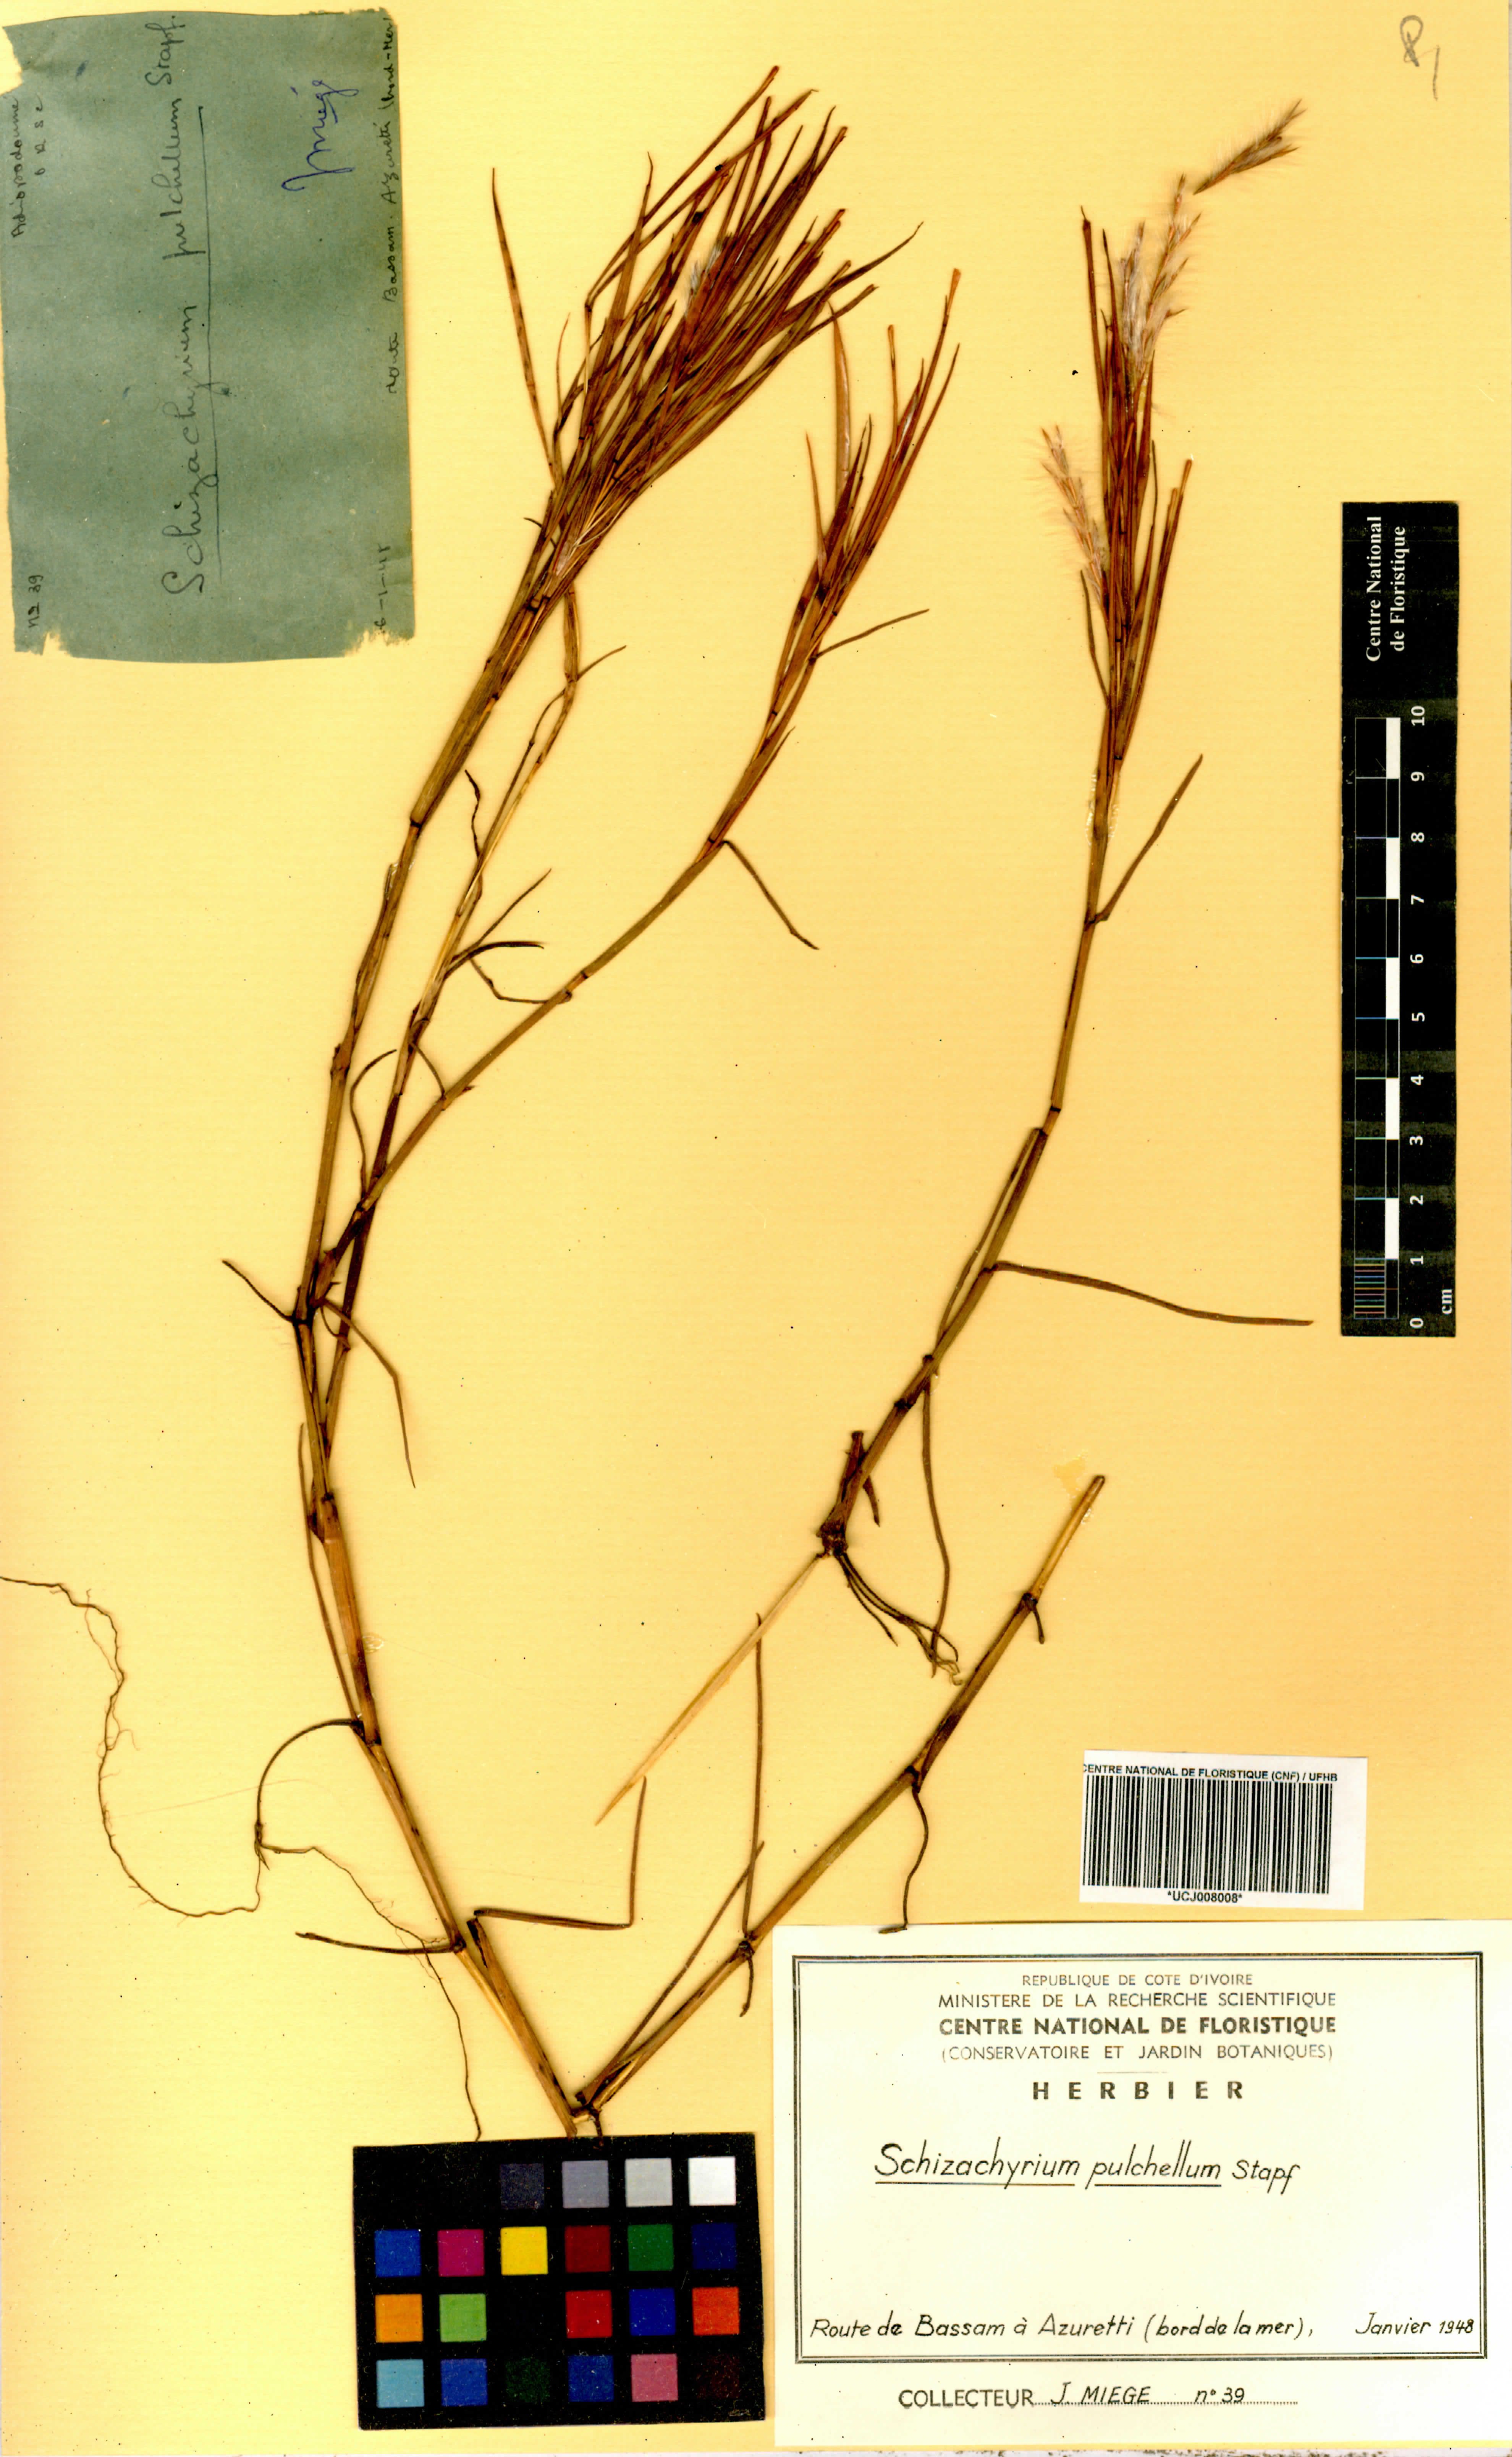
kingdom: Plantae
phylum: Tracheophyta
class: Liliopsida
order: Poales
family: Poaceae
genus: Schizachyrium
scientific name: Schizachyrium pulchellum
